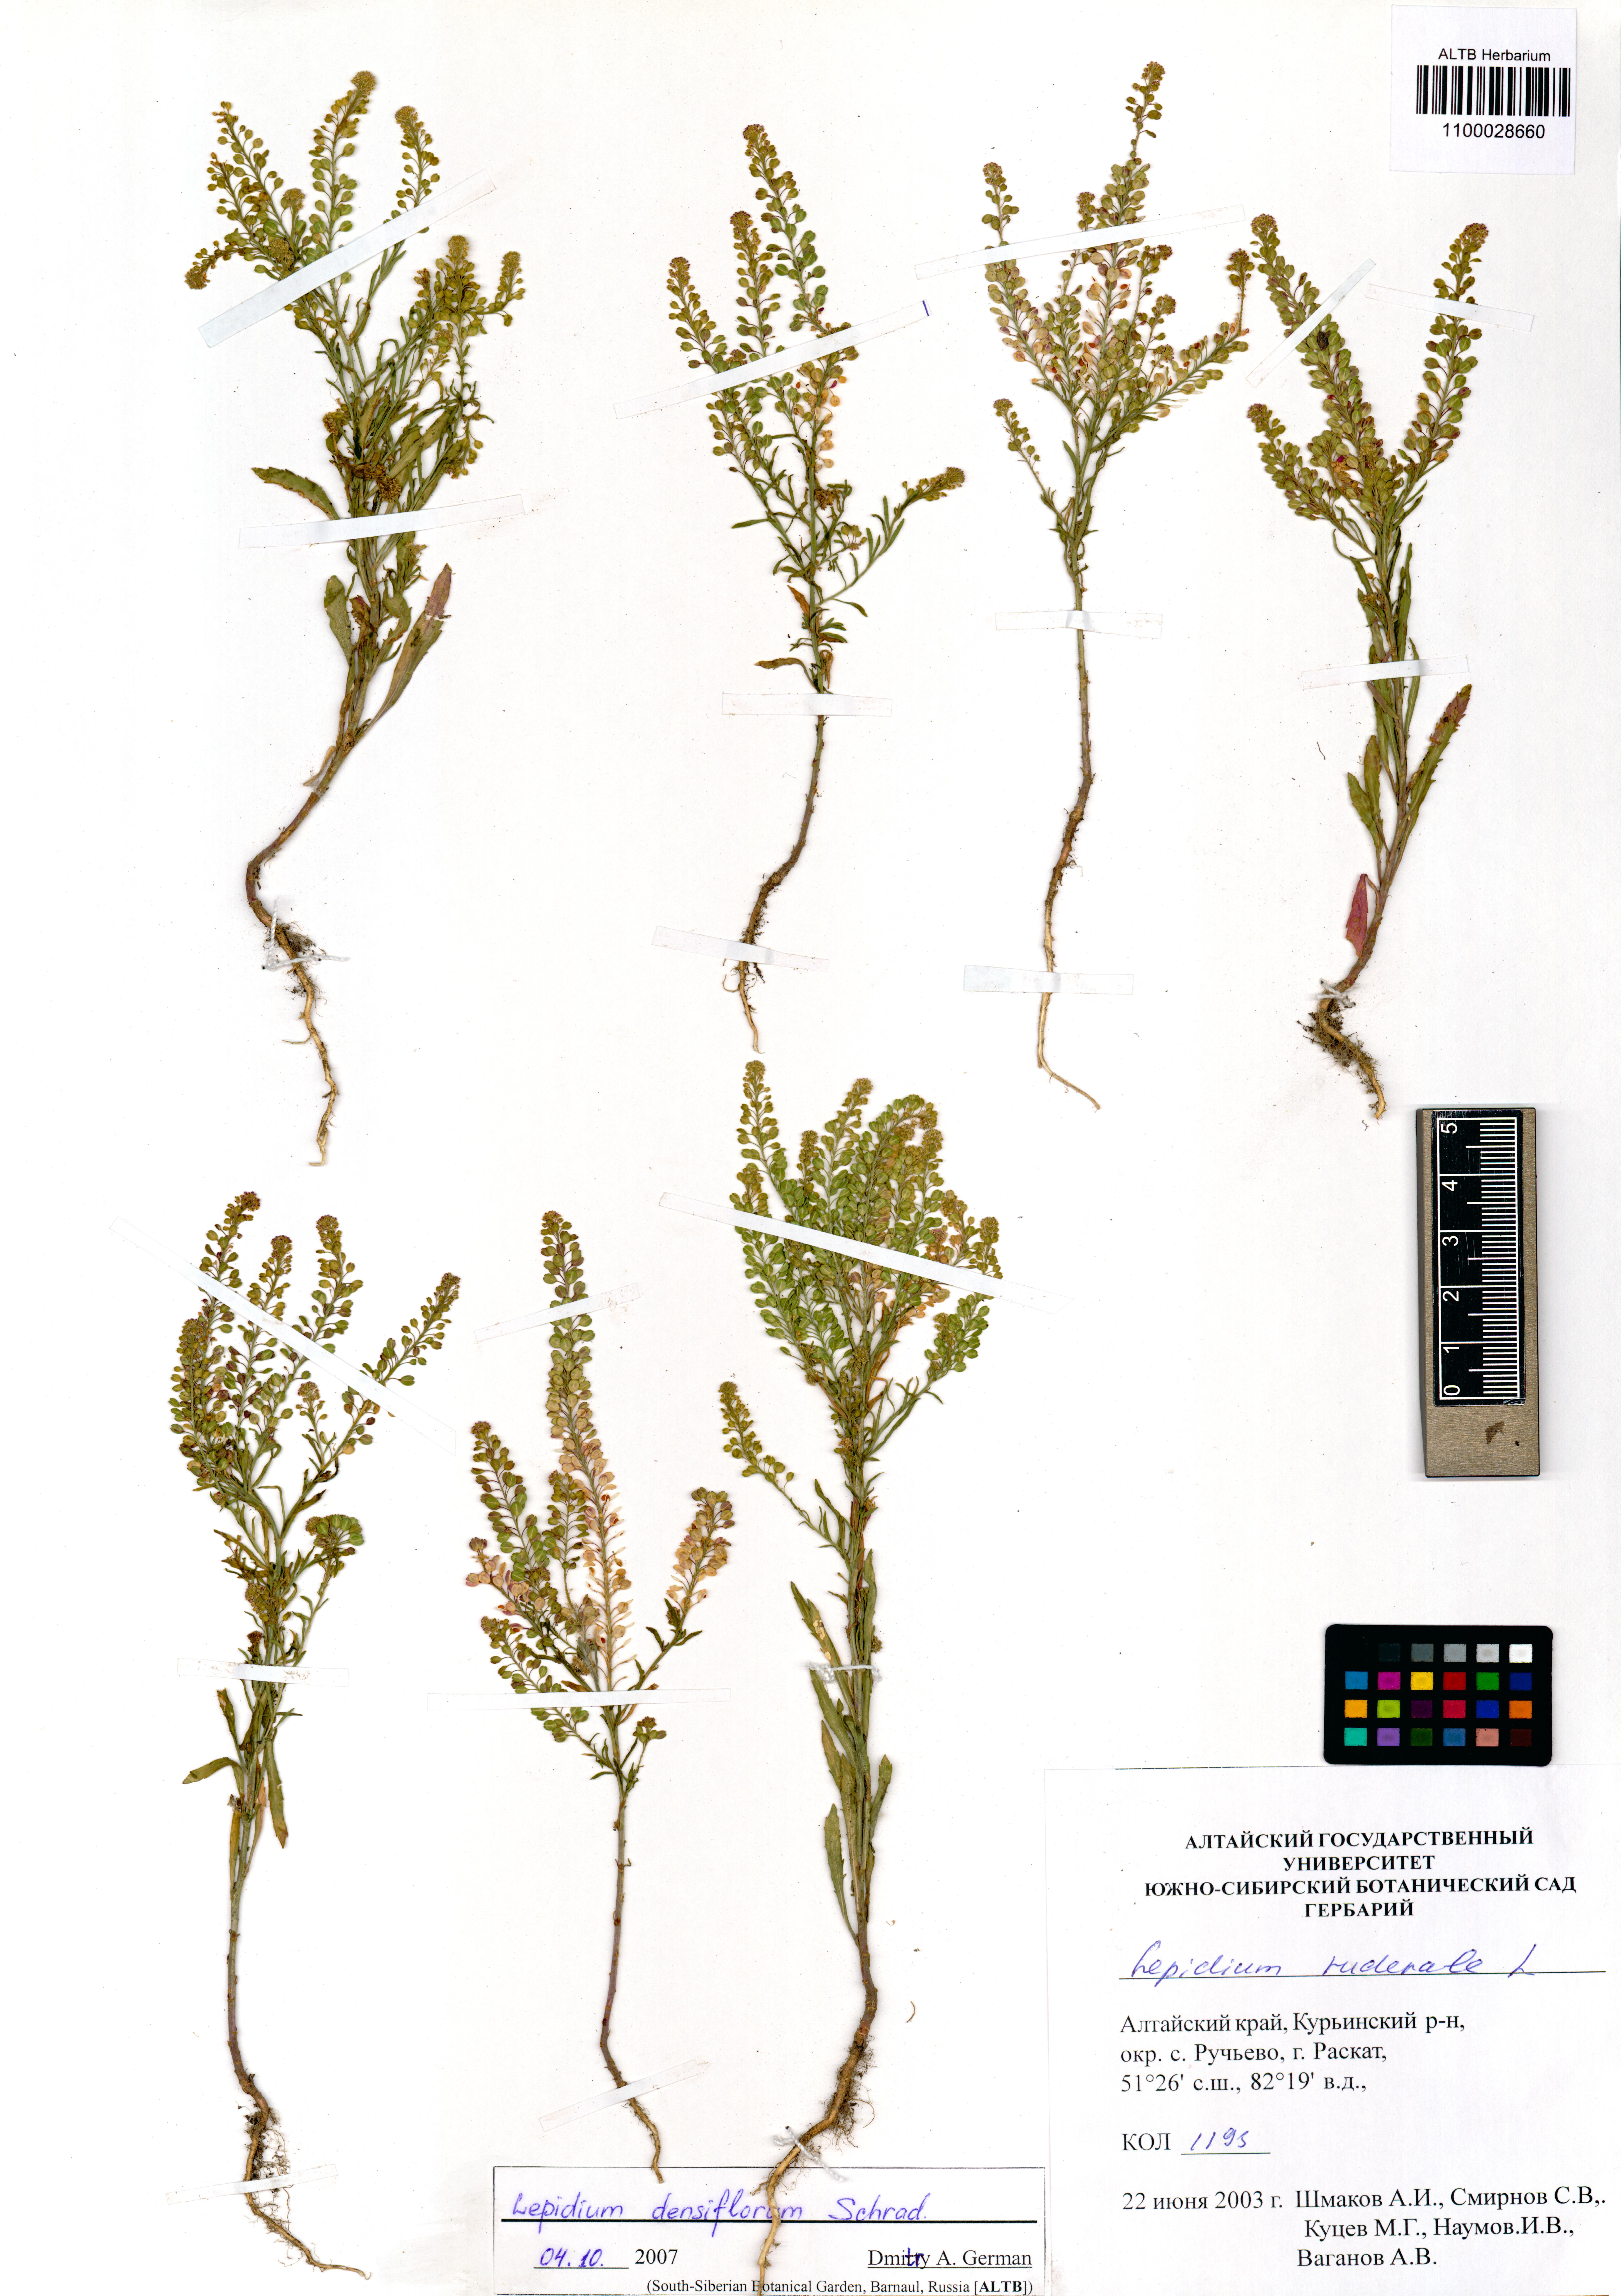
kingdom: Plantae
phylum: Tracheophyta
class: Magnoliopsida
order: Brassicales
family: Brassicaceae
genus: Lepidium
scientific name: Lepidium densiflorum
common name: Miner's pepperwort
